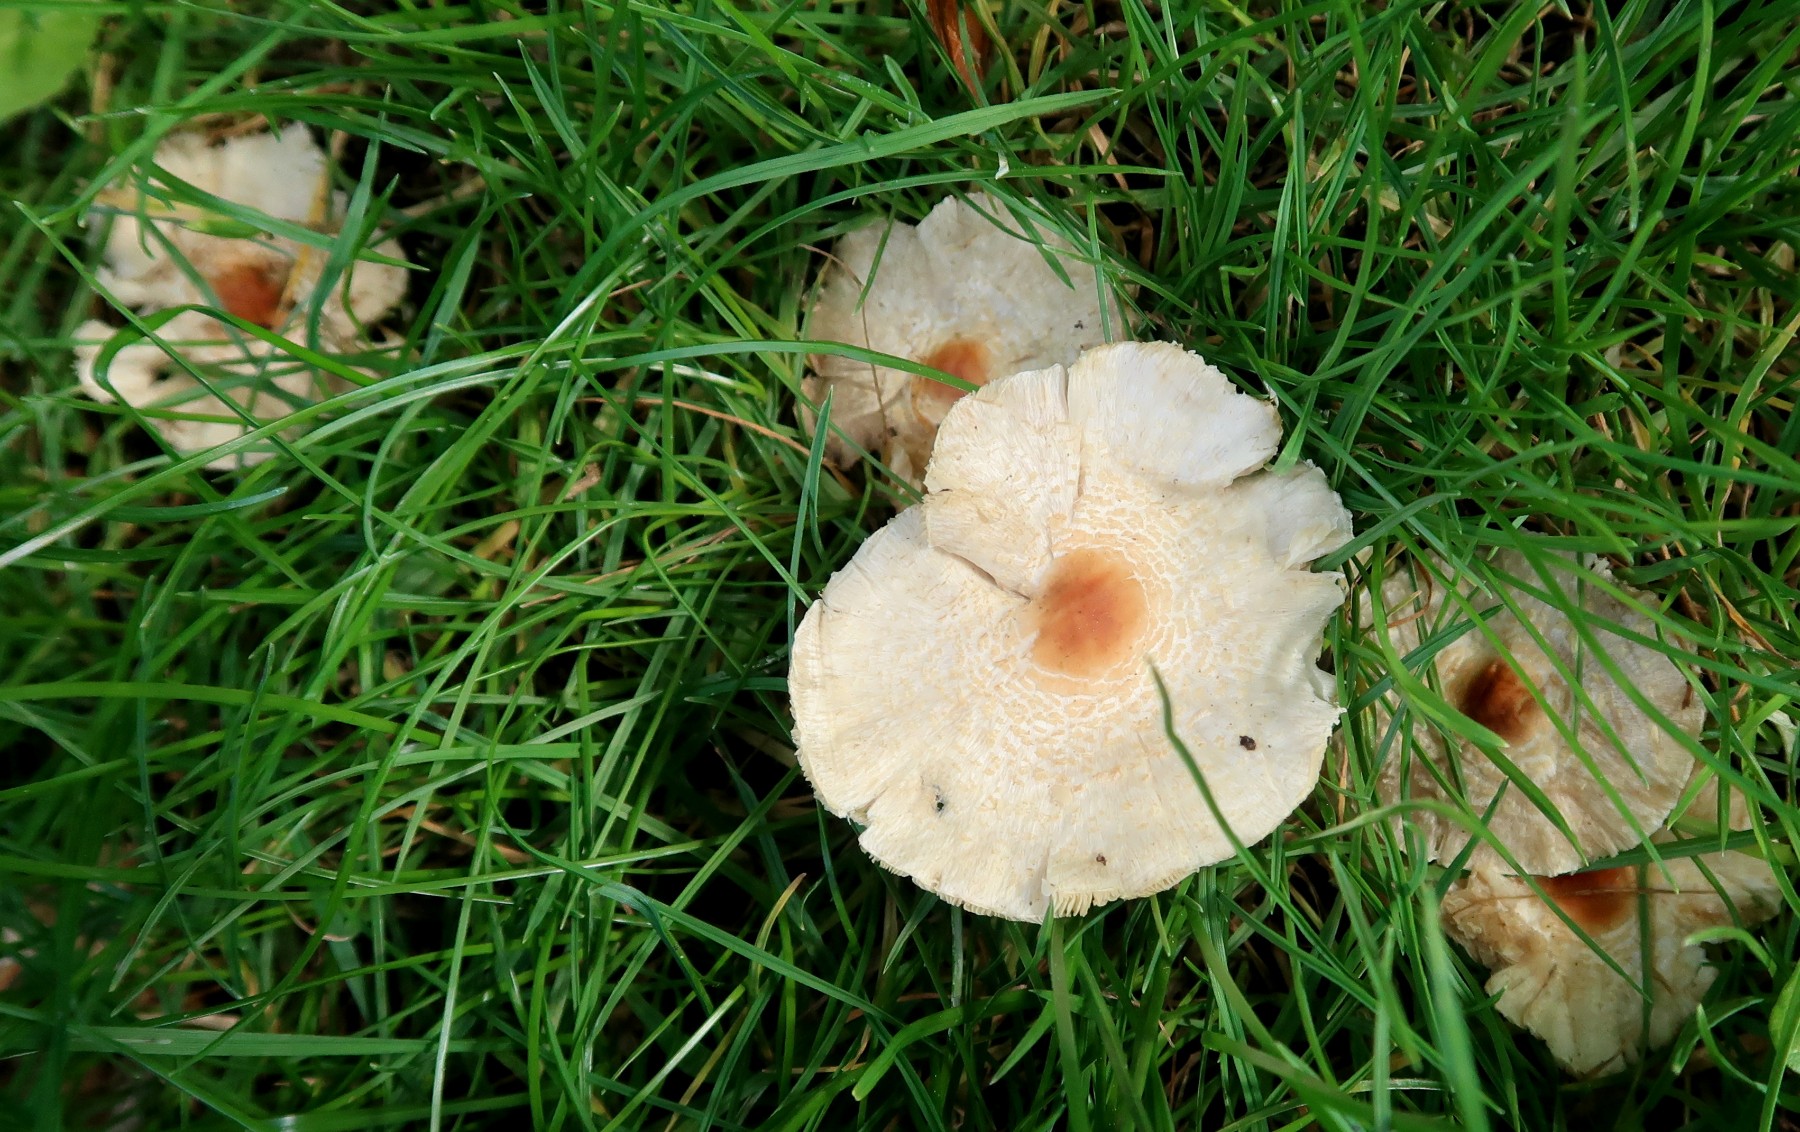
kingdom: Fungi
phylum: Basidiomycota
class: Agaricomycetes
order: Agaricales
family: Agaricaceae
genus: Lepiota
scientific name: Lepiota cristata
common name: stinkende parasolhat
